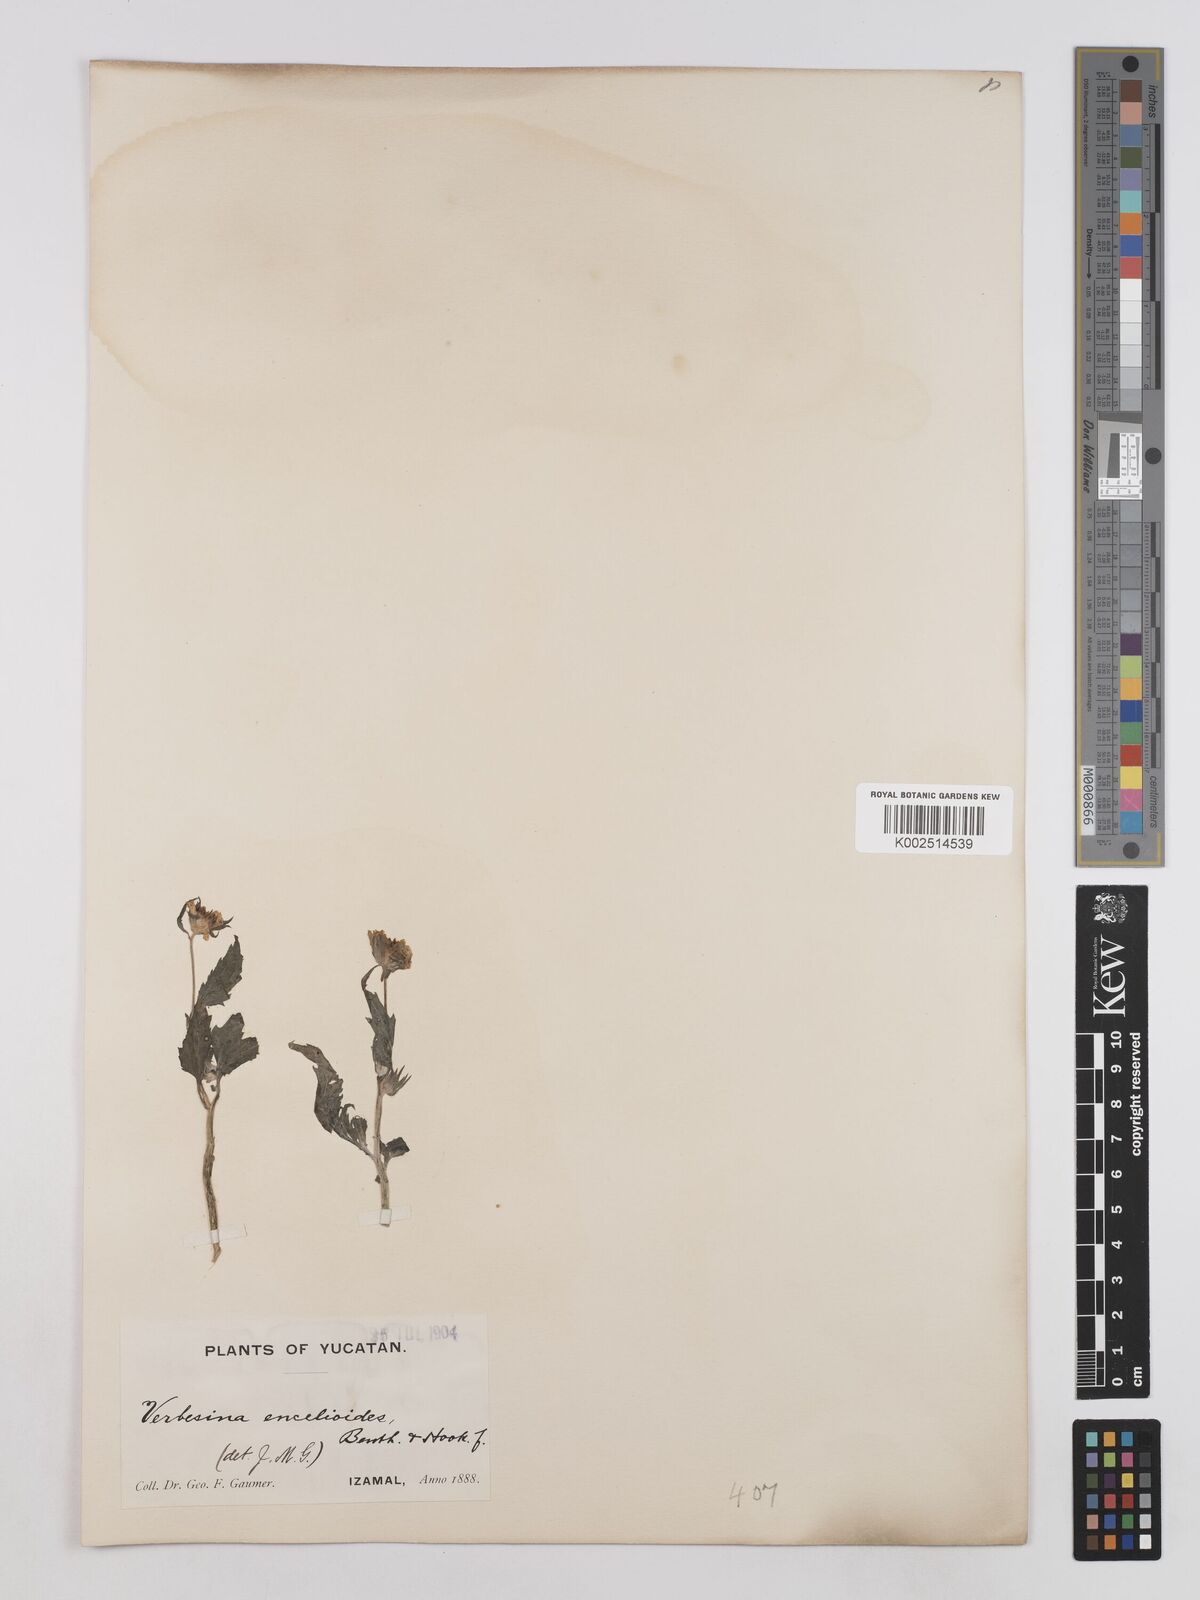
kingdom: Plantae
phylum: Tracheophyta
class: Magnoliopsida
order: Asterales
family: Asteraceae
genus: Verbesina
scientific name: Verbesina encelioides
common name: Golden crownbeard
